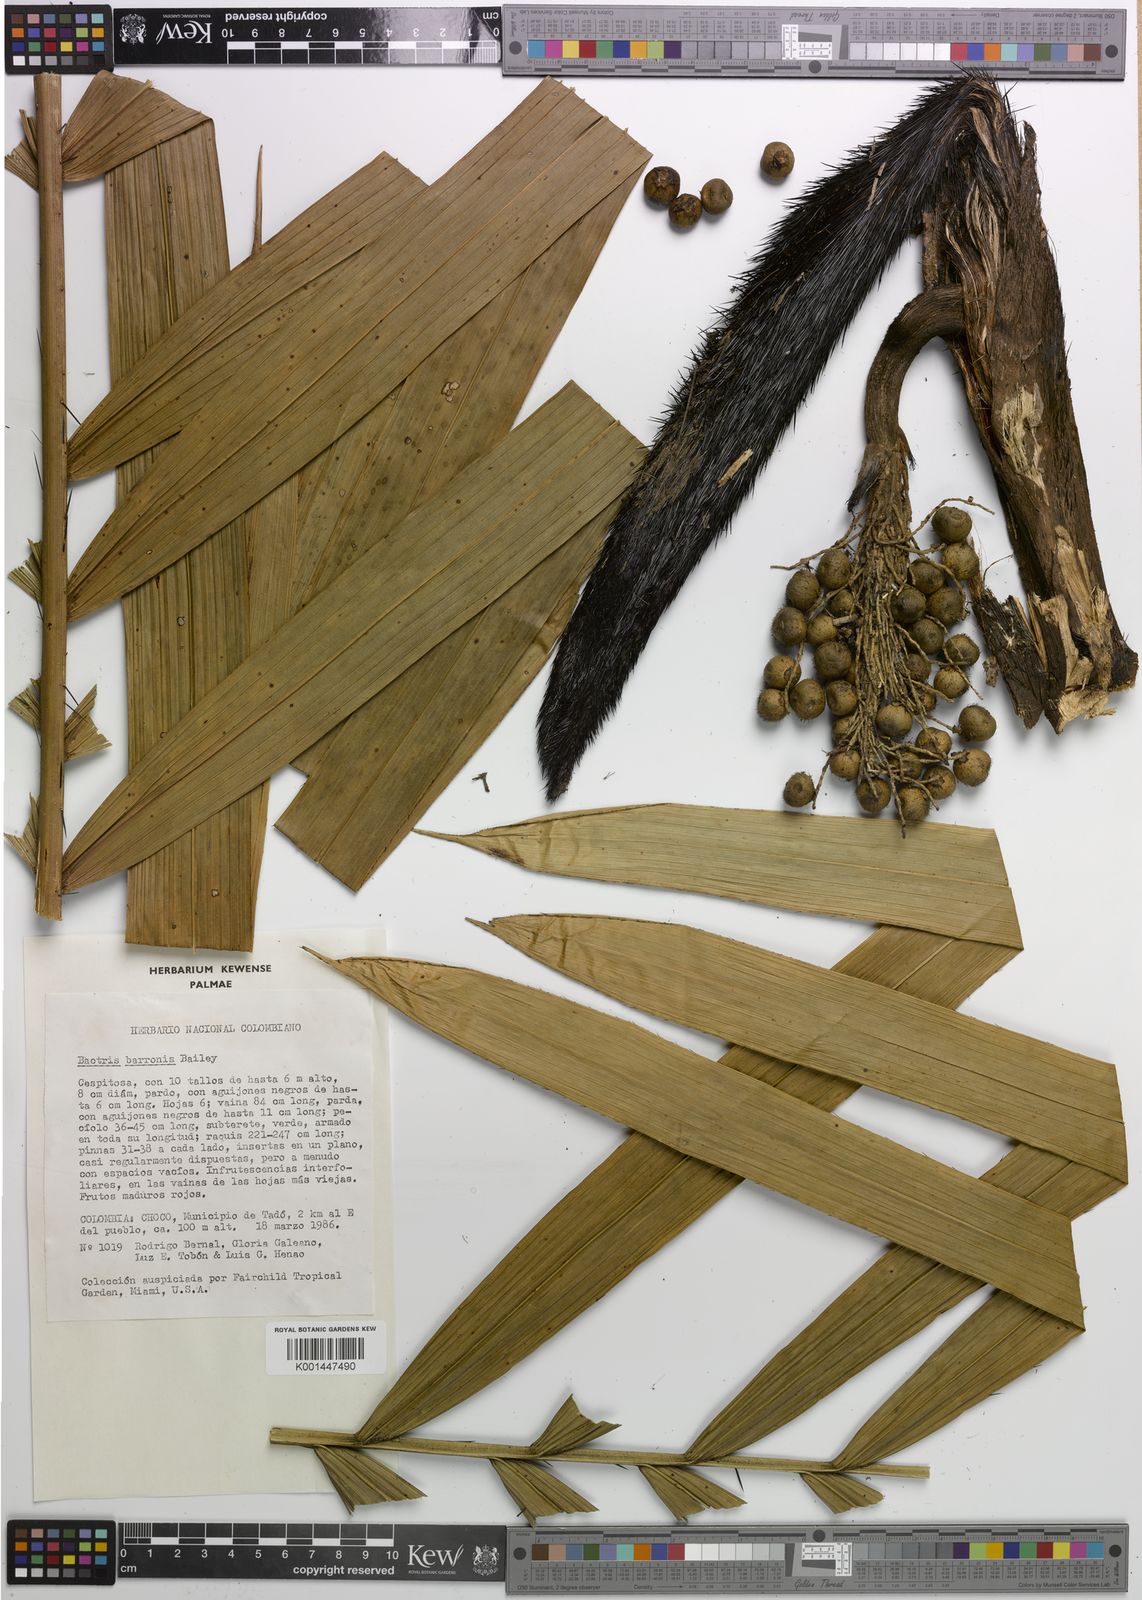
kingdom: Plantae
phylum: Tracheophyta
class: Liliopsida
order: Arecales
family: Arecaceae
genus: Bactris
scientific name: Bactris barronis
